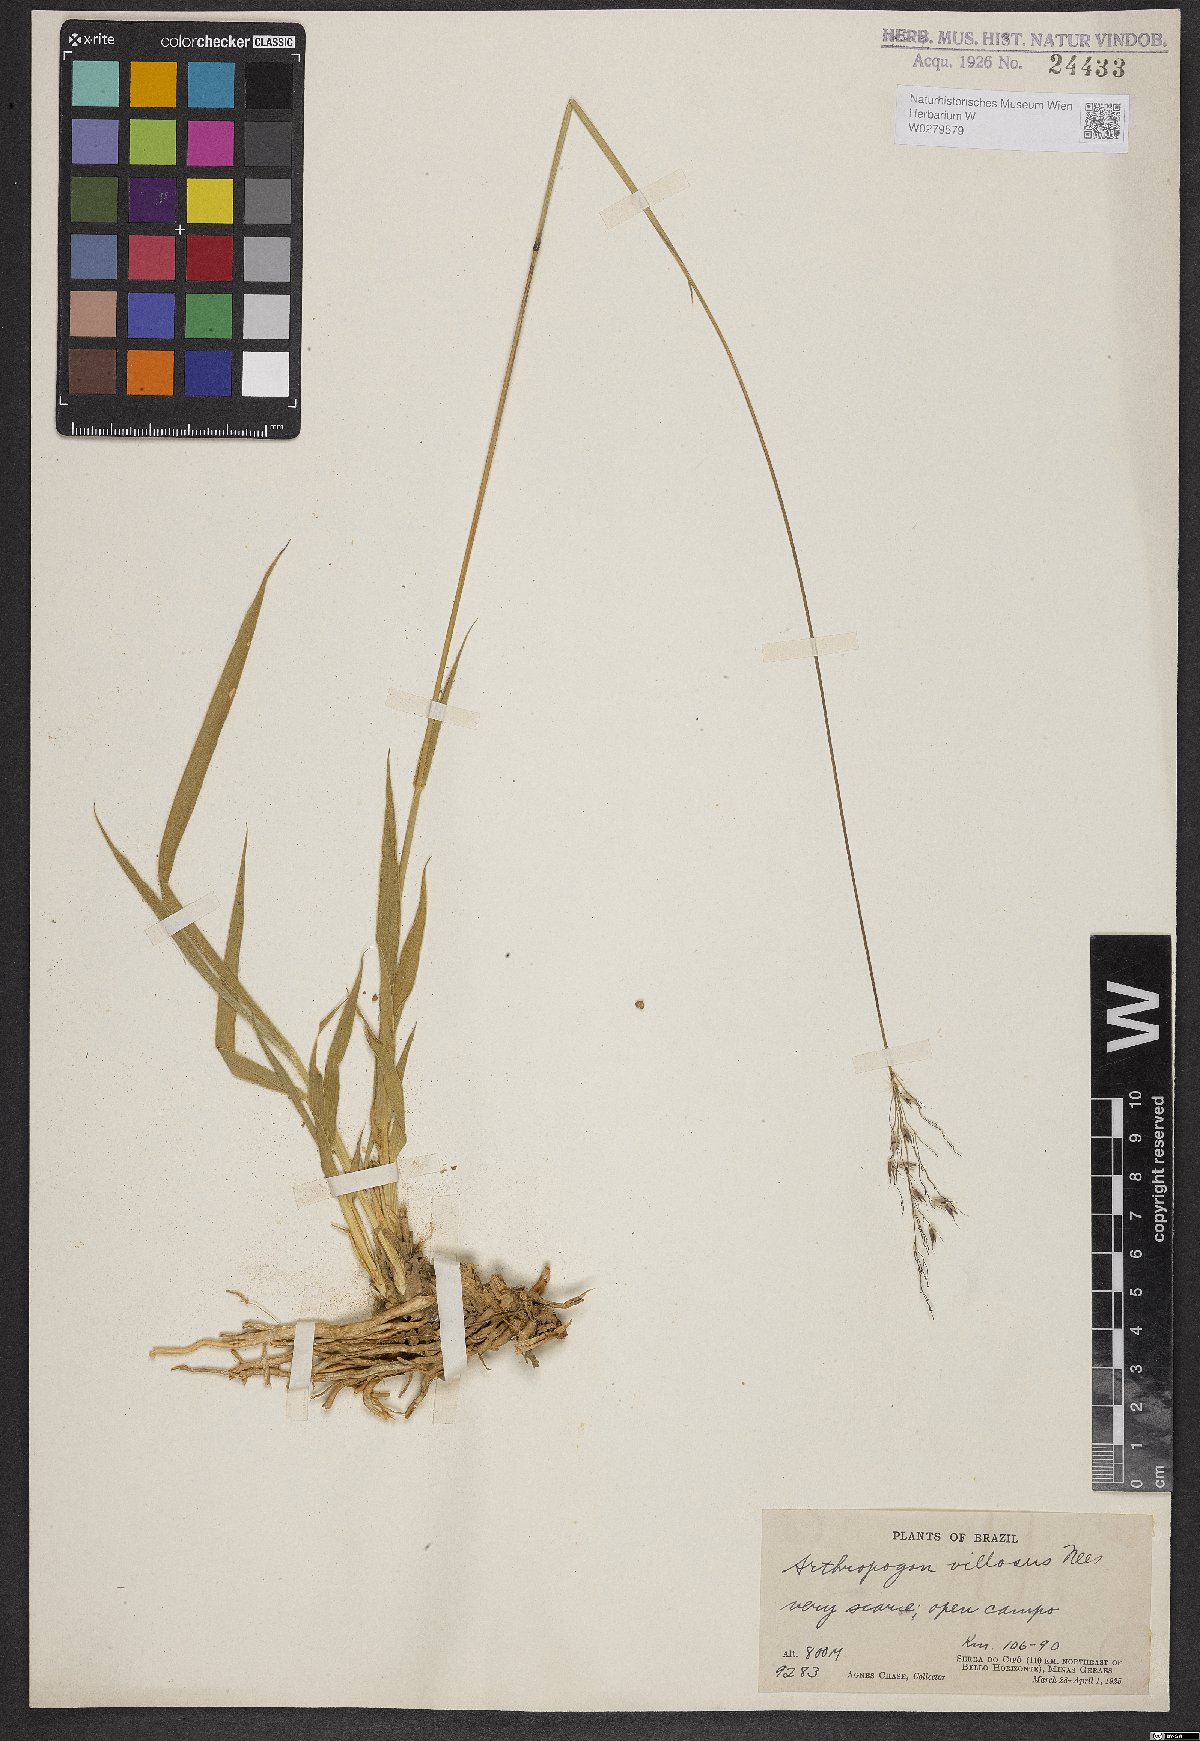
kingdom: Plantae
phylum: Tracheophyta
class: Liliopsida
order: Poales
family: Poaceae
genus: Arthropogon
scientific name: Arthropogon villosus
